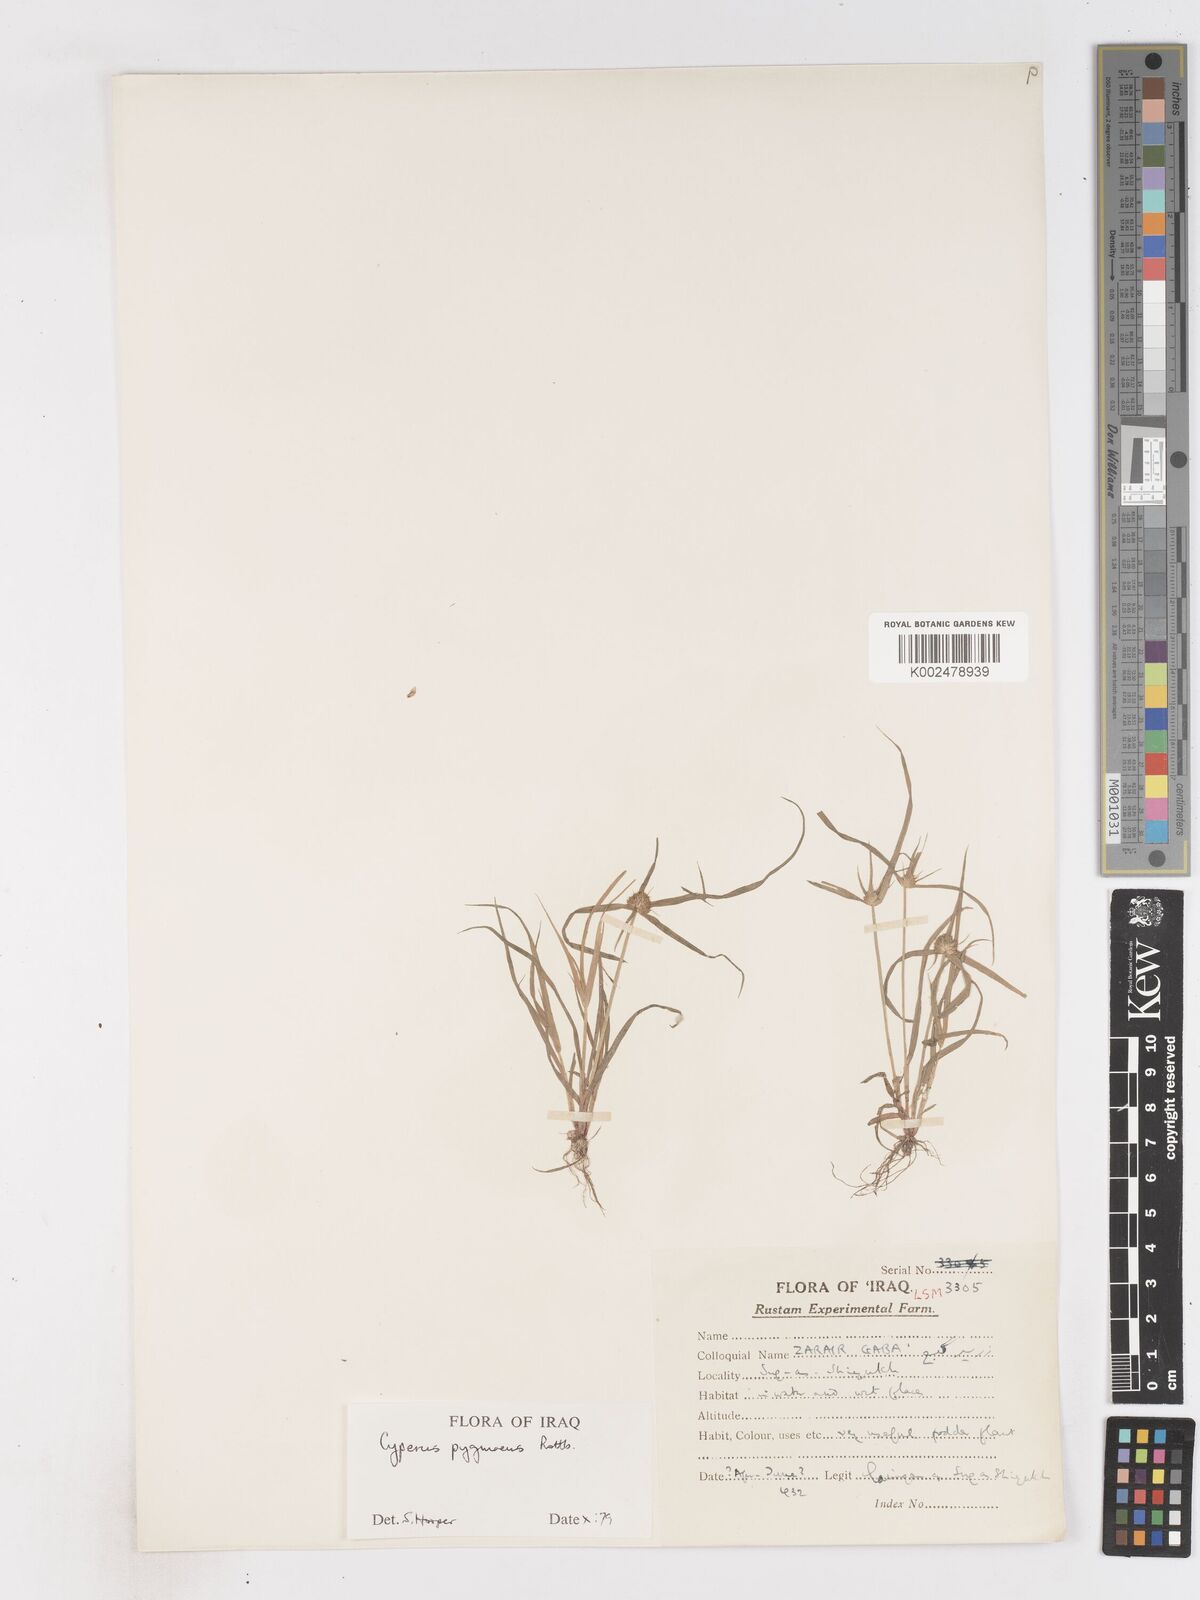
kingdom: Plantae
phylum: Tracheophyta
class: Liliopsida
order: Poales
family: Cyperaceae
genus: Cyperus
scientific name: Cyperus michelianus
